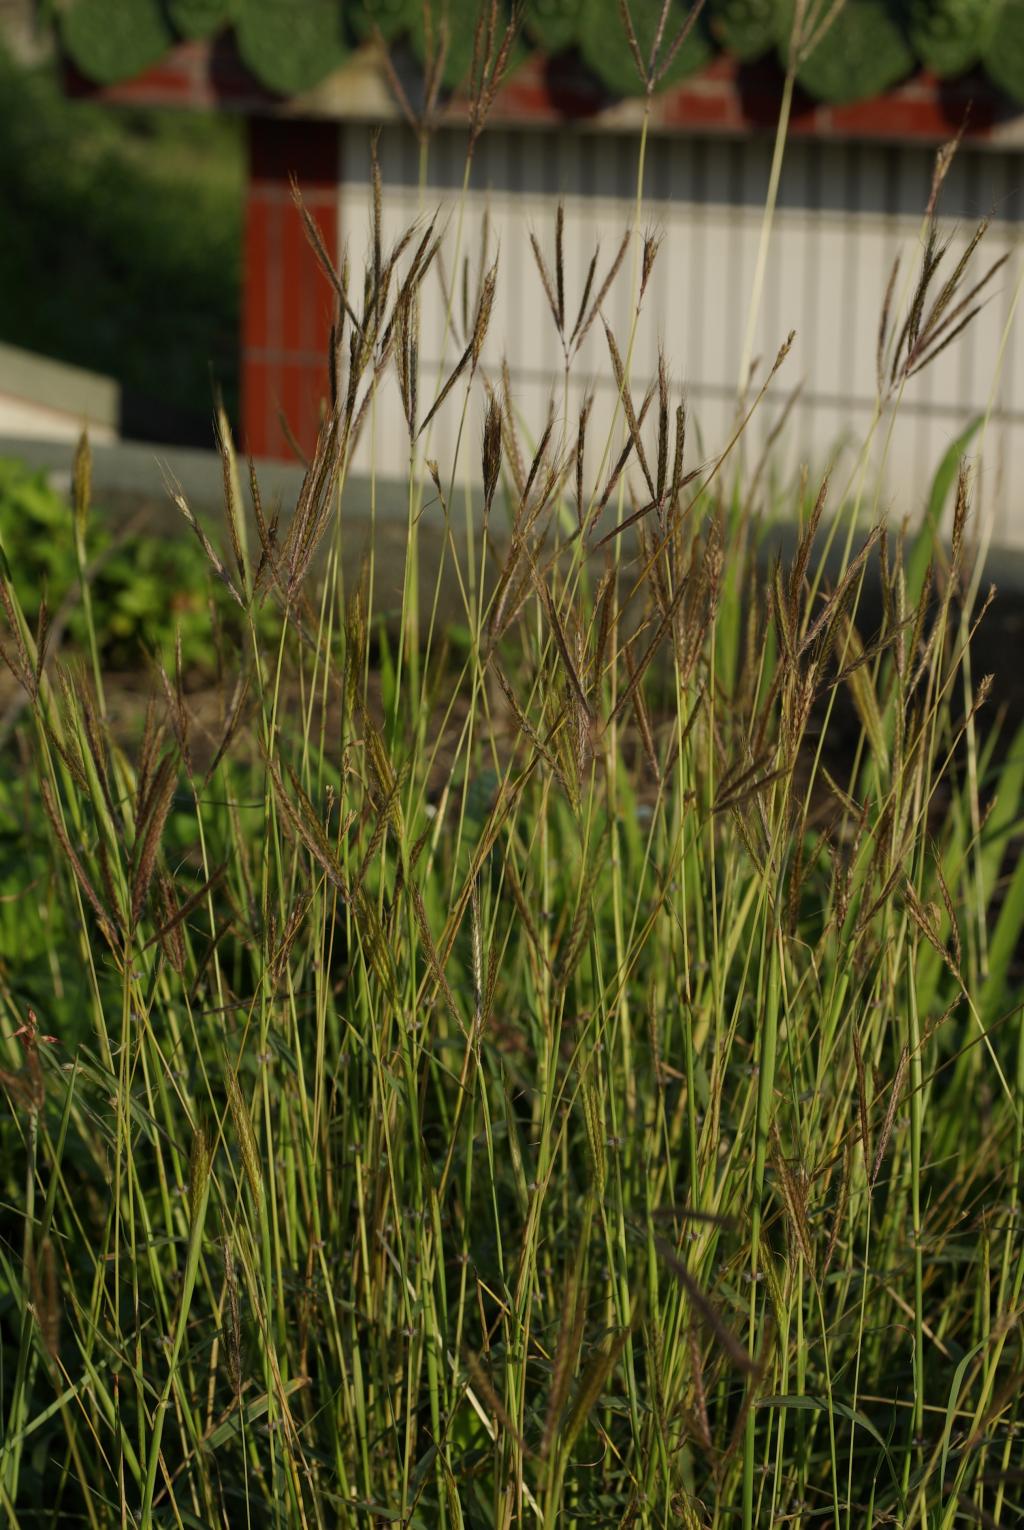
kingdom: Plantae
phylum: Tracheophyta
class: Liliopsida
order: Poales
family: Poaceae
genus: Dichanthium
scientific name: Dichanthium annulatum
